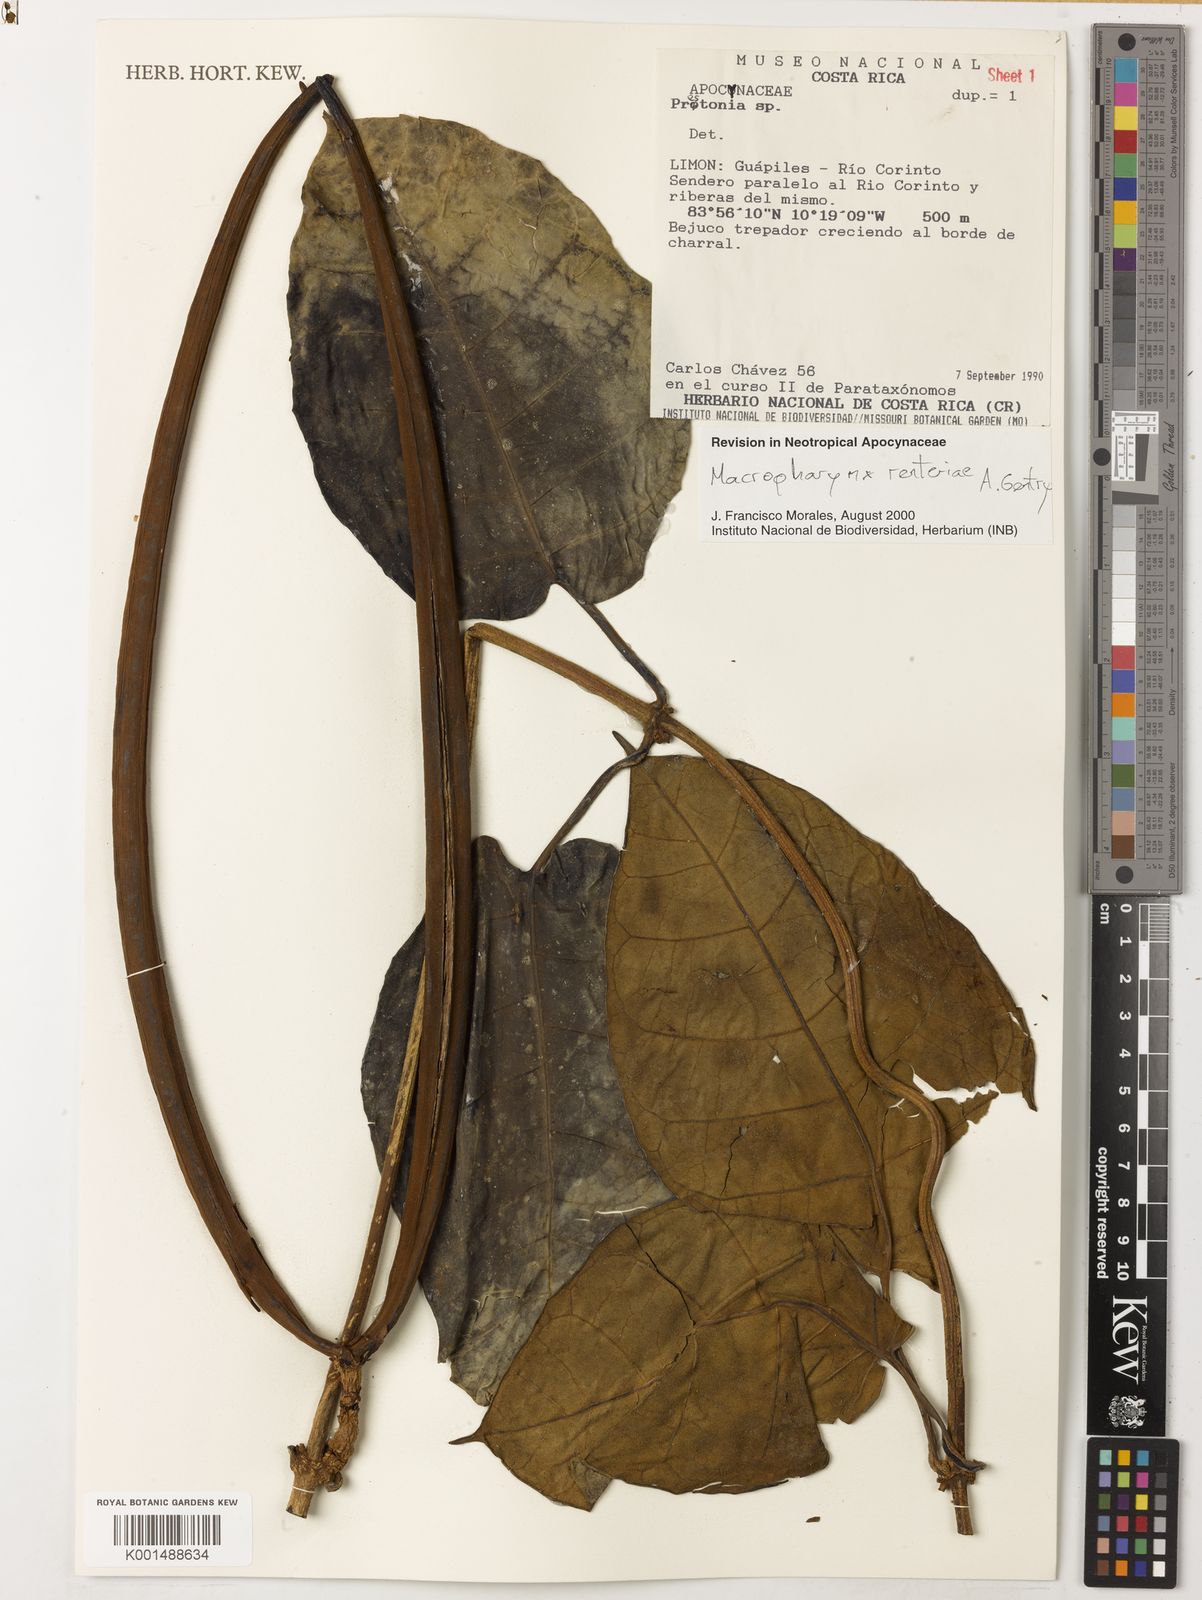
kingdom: Plantae
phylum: Tracheophyta
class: Magnoliopsida
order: Gentianales
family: Apocynaceae
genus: Macropharynx
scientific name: Macropharynx renteriae
